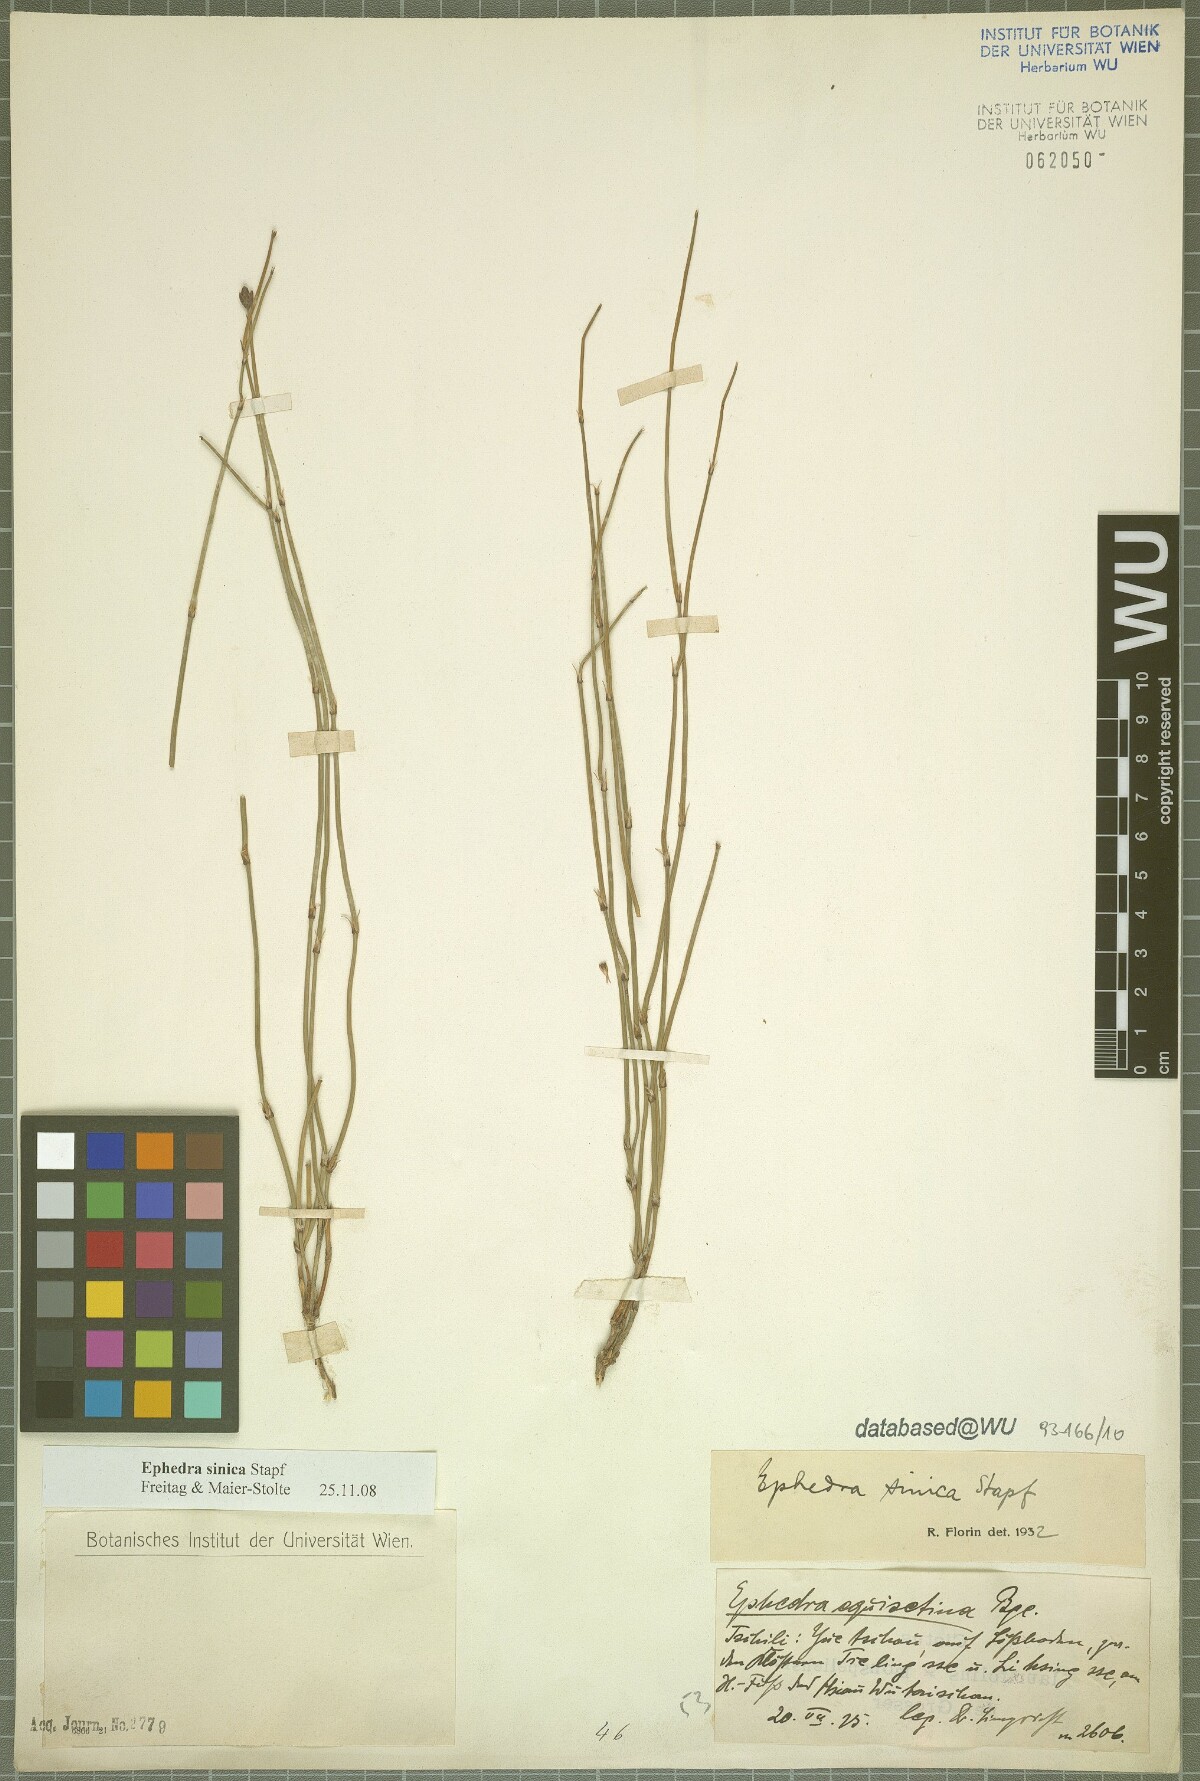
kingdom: Plantae
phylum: Tracheophyta
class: Gnetopsida
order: Ephedrales
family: Ephedraceae
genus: Ephedra
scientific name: Ephedra sinica
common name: Chinese ephedra
